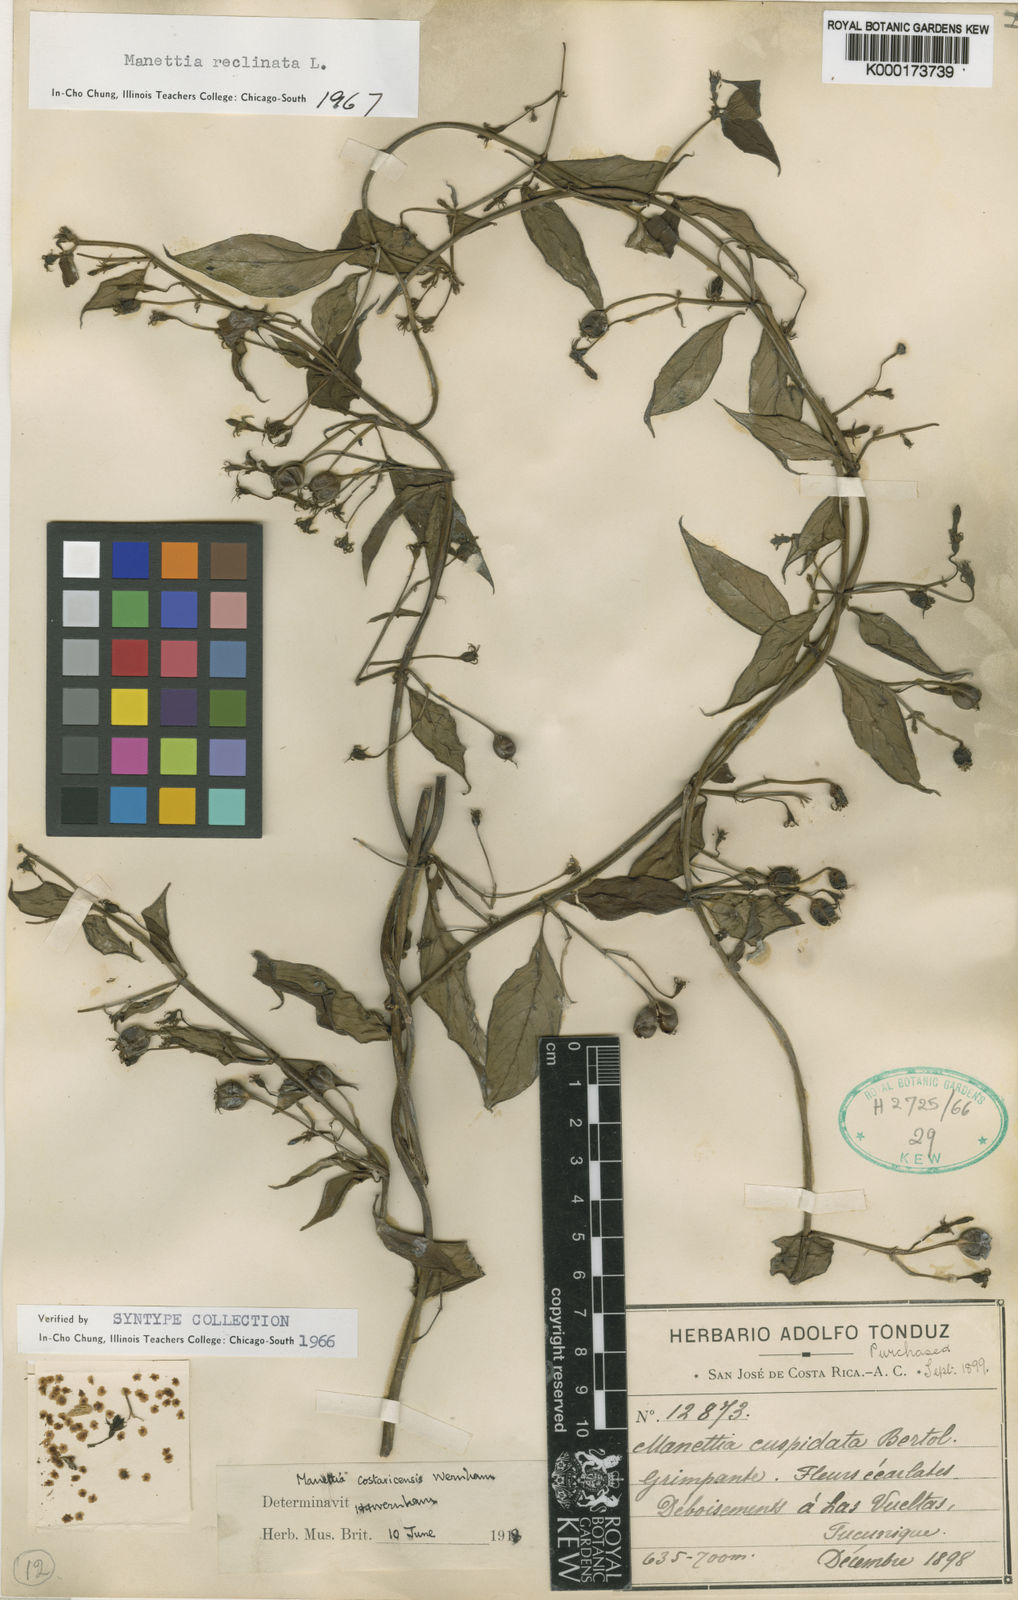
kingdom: Plantae
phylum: Tracheophyta
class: Magnoliopsida
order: Gentianales
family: Rubiaceae
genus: Manettia
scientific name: Manettia reclinata
